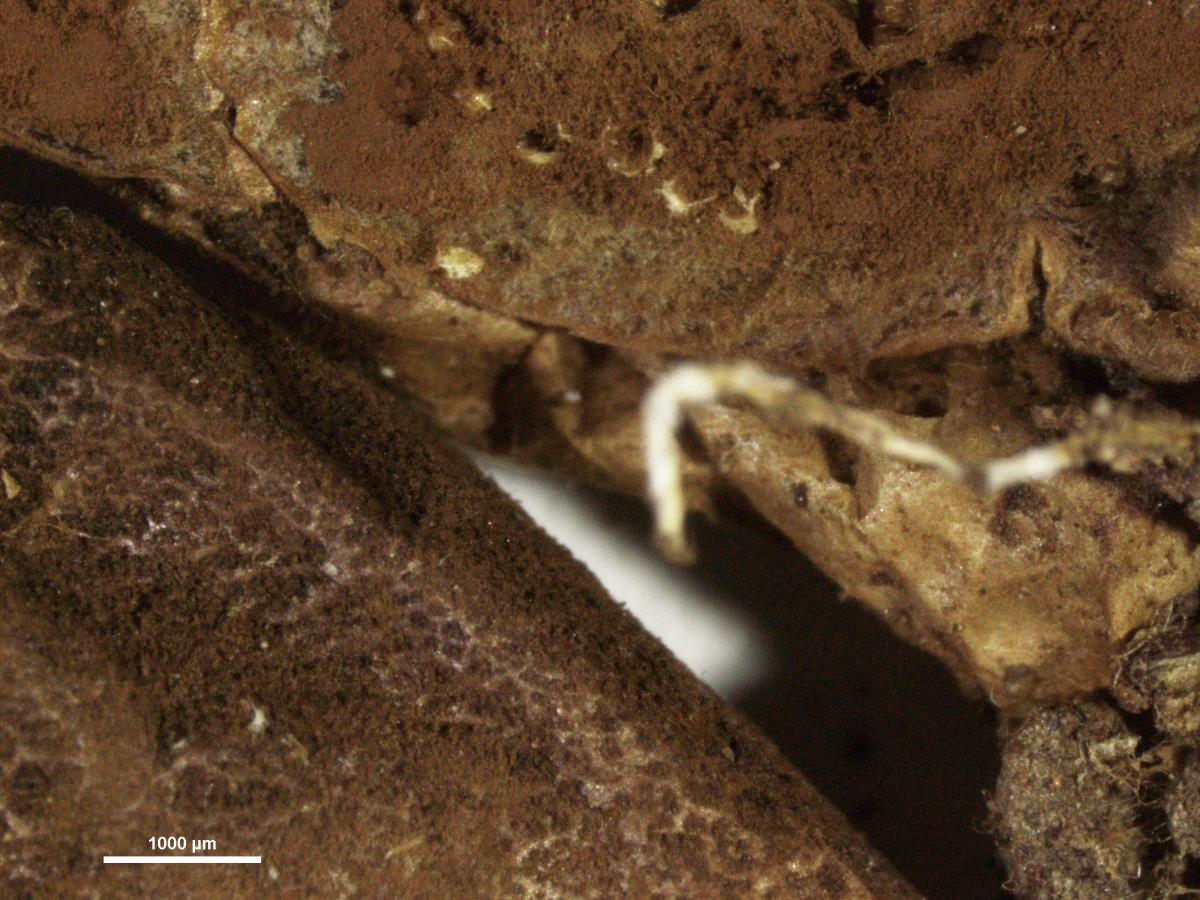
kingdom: Fungi
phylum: Basidiomycota
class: Agaricomycetes
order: Agaricales
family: Lycoperdaceae
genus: Lycoperdon
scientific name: Lycoperdon nitidum
